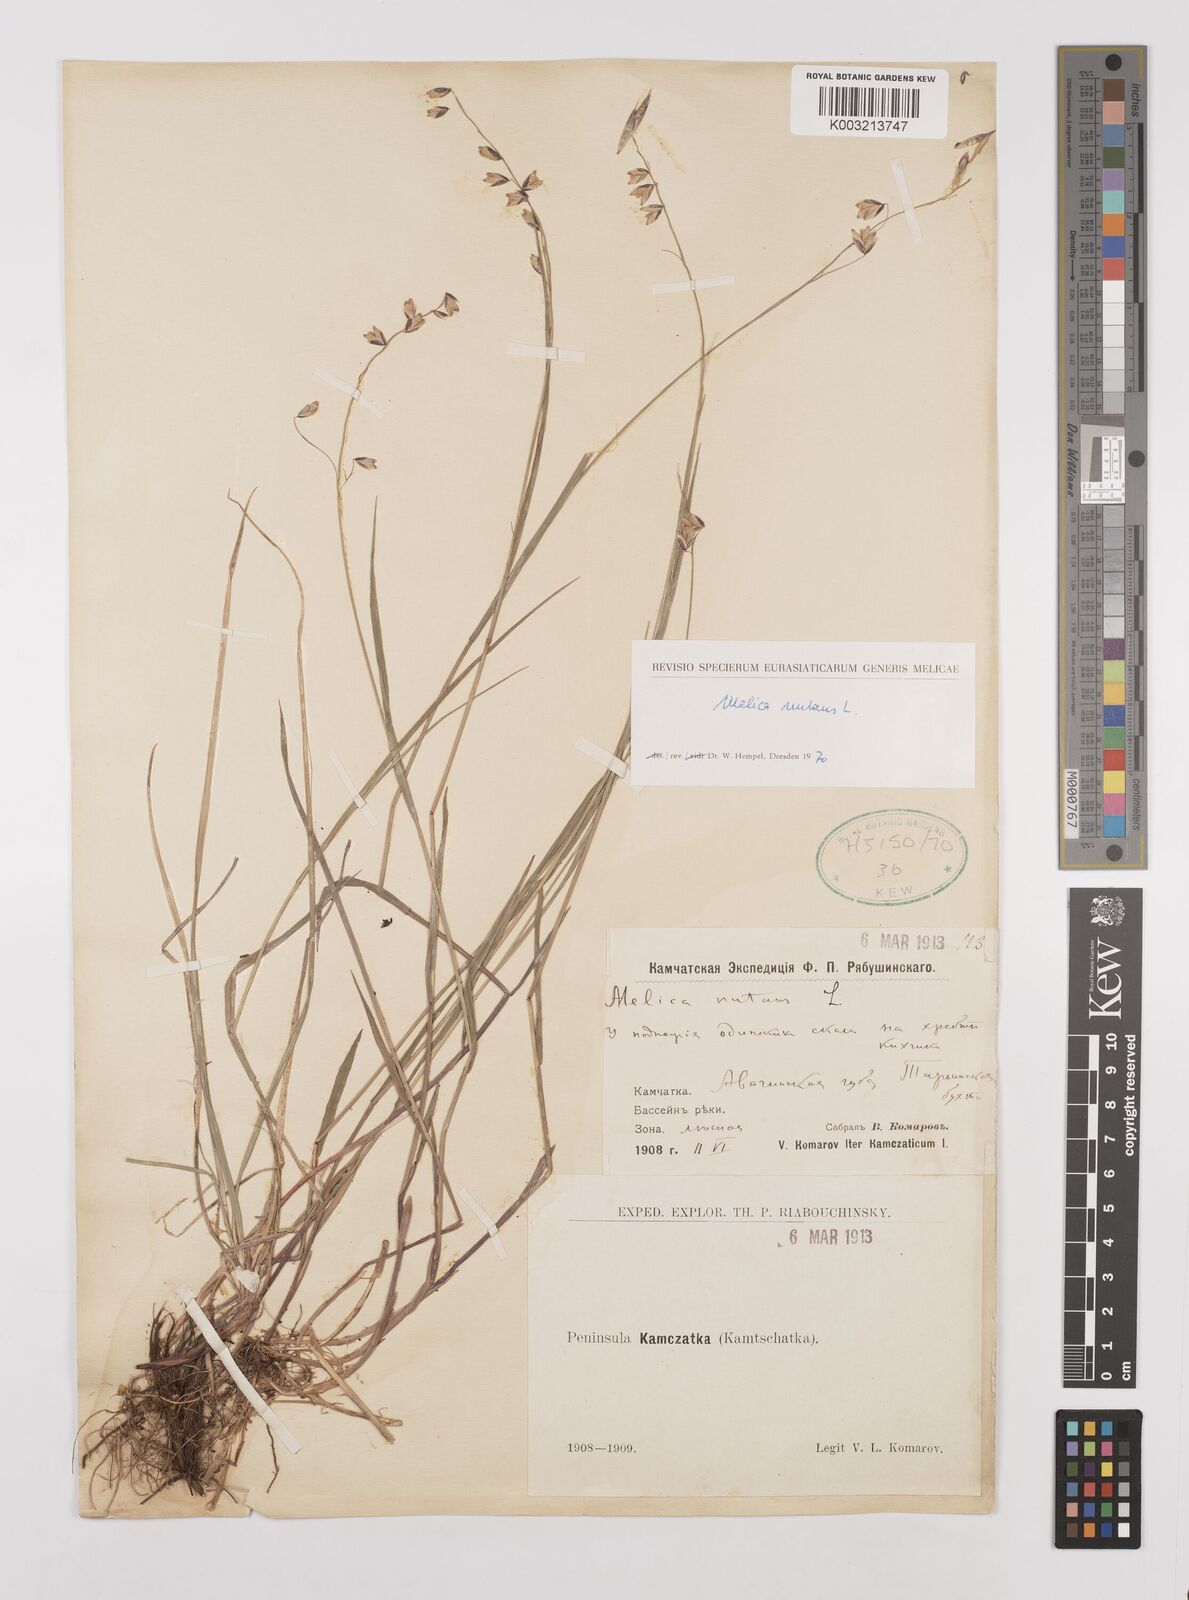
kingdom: Plantae
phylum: Tracheophyta
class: Liliopsida
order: Poales
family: Poaceae
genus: Melica
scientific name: Melica
